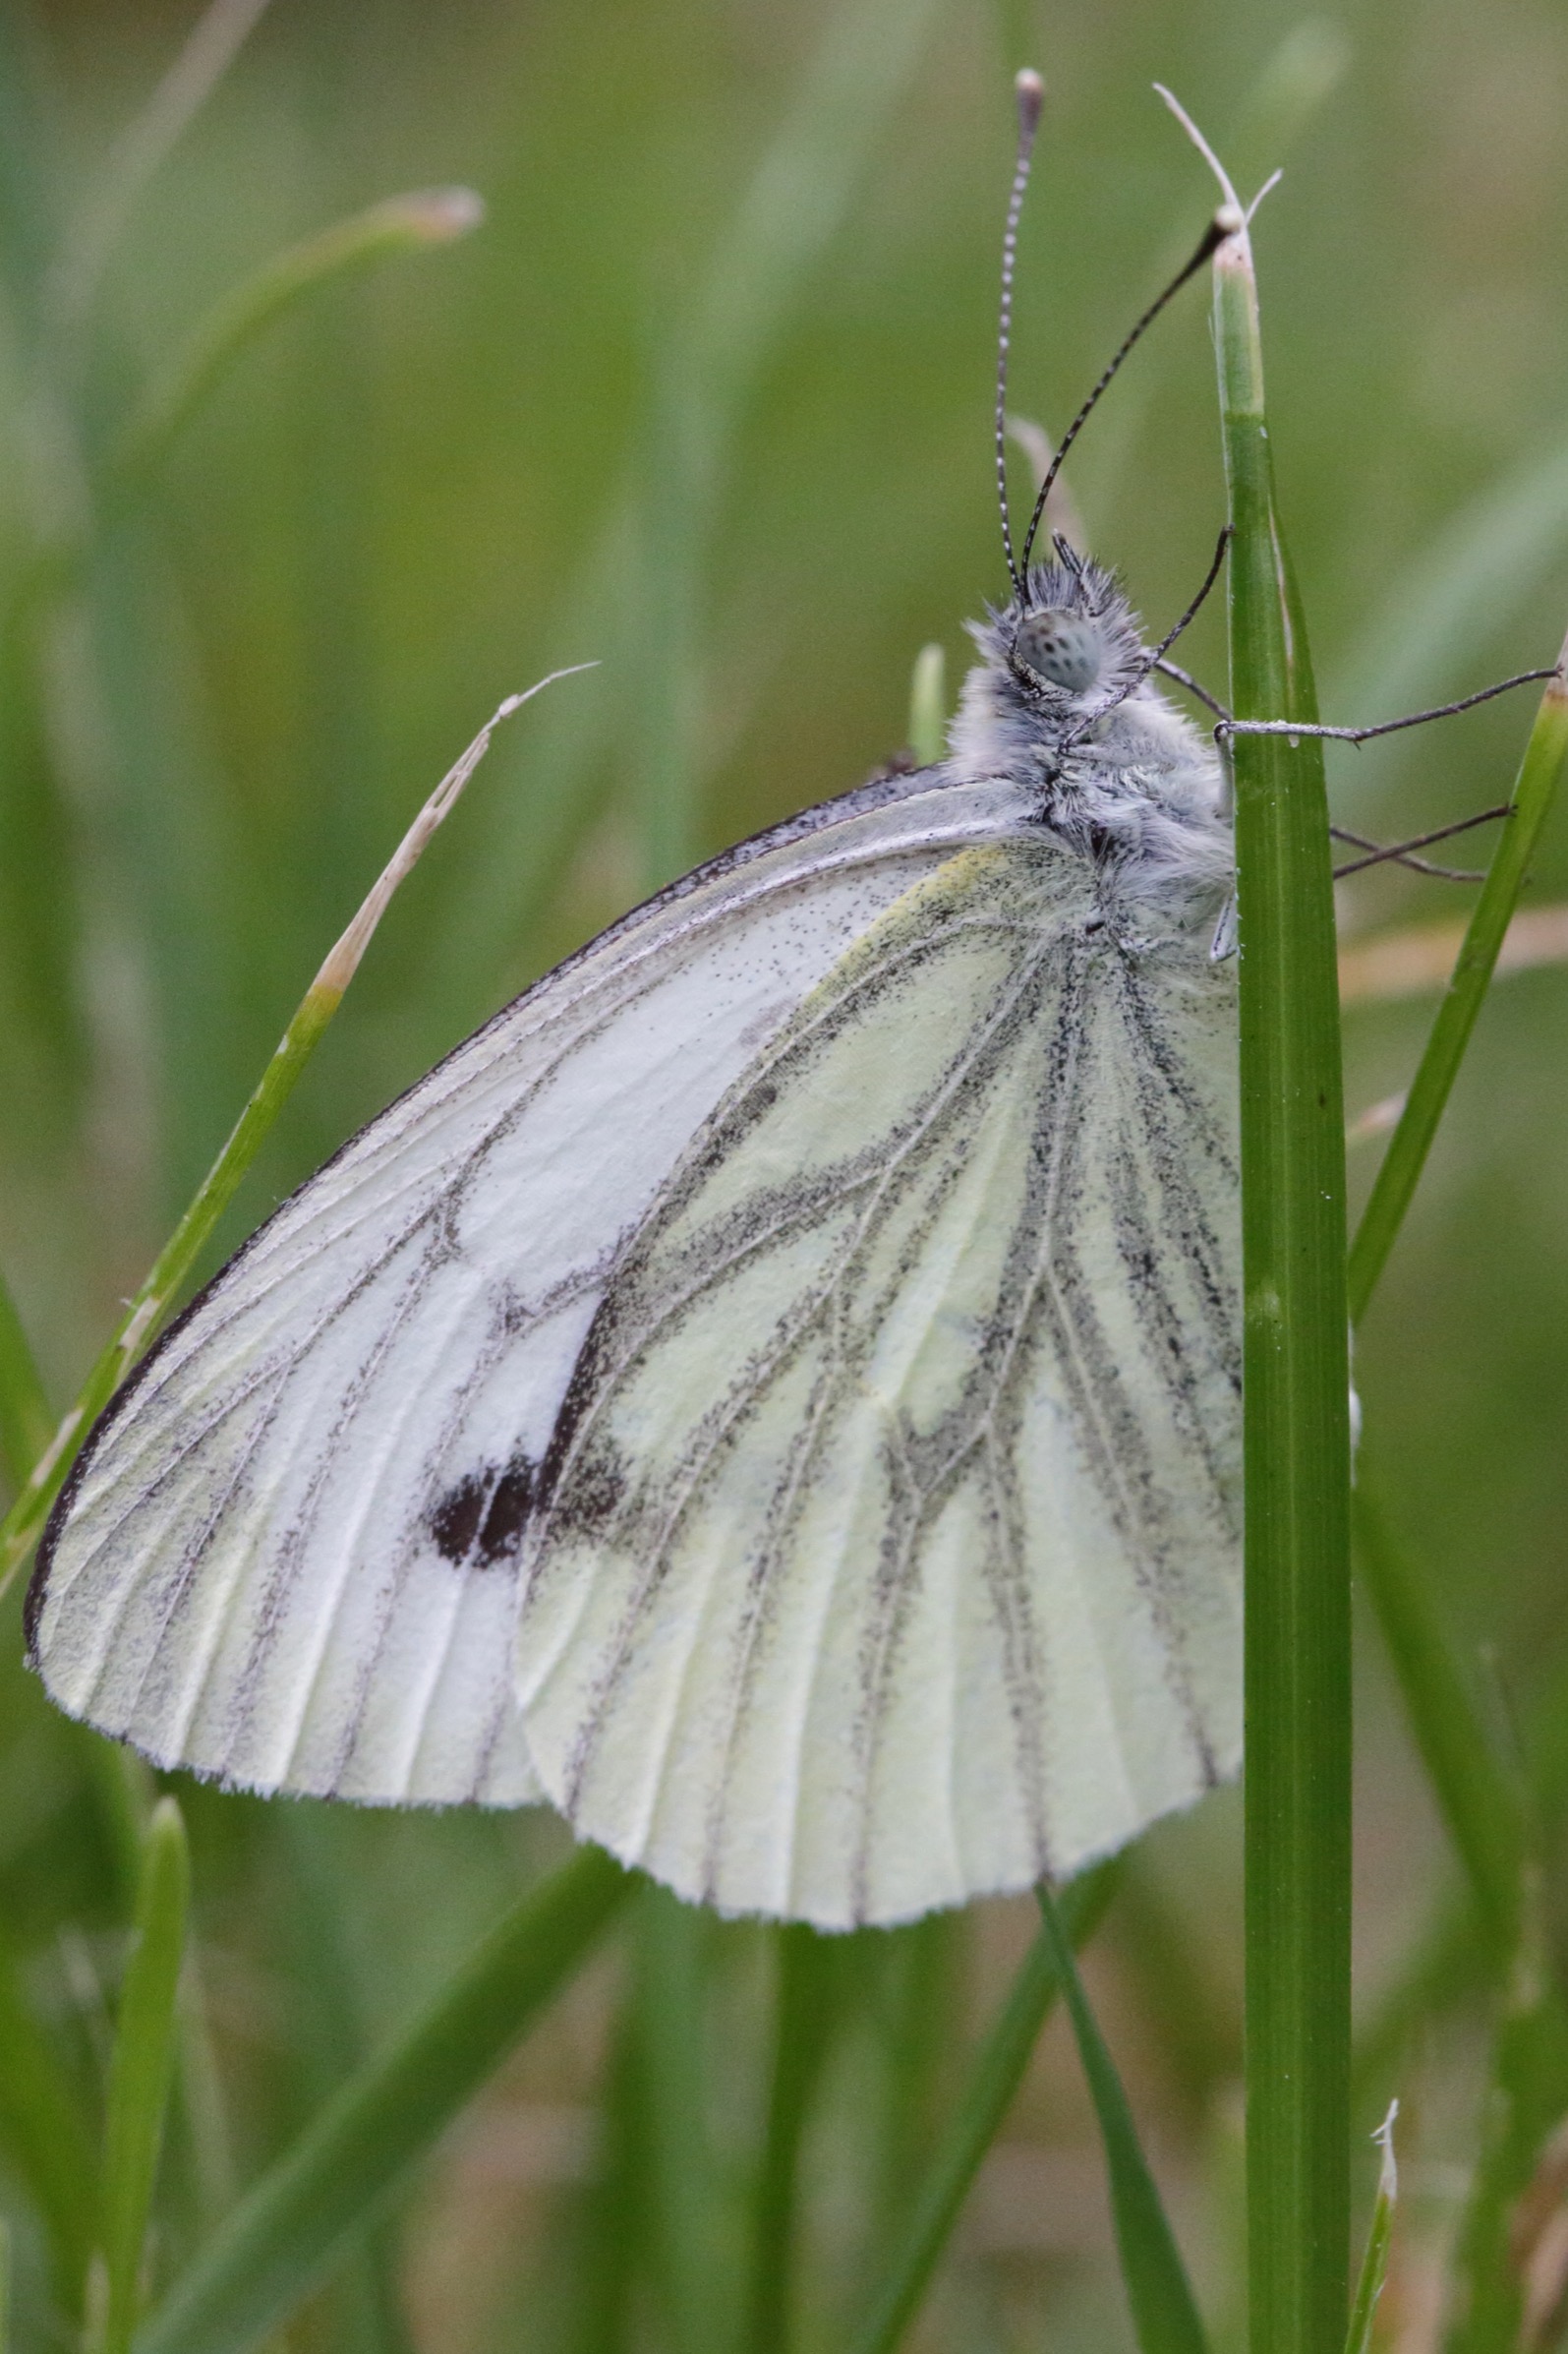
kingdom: Animalia
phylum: Arthropoda
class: Insecta
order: Lepidoptera
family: Pieridae
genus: Pieris
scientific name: Pieris napi
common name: Grønåret kålsommerfugl
